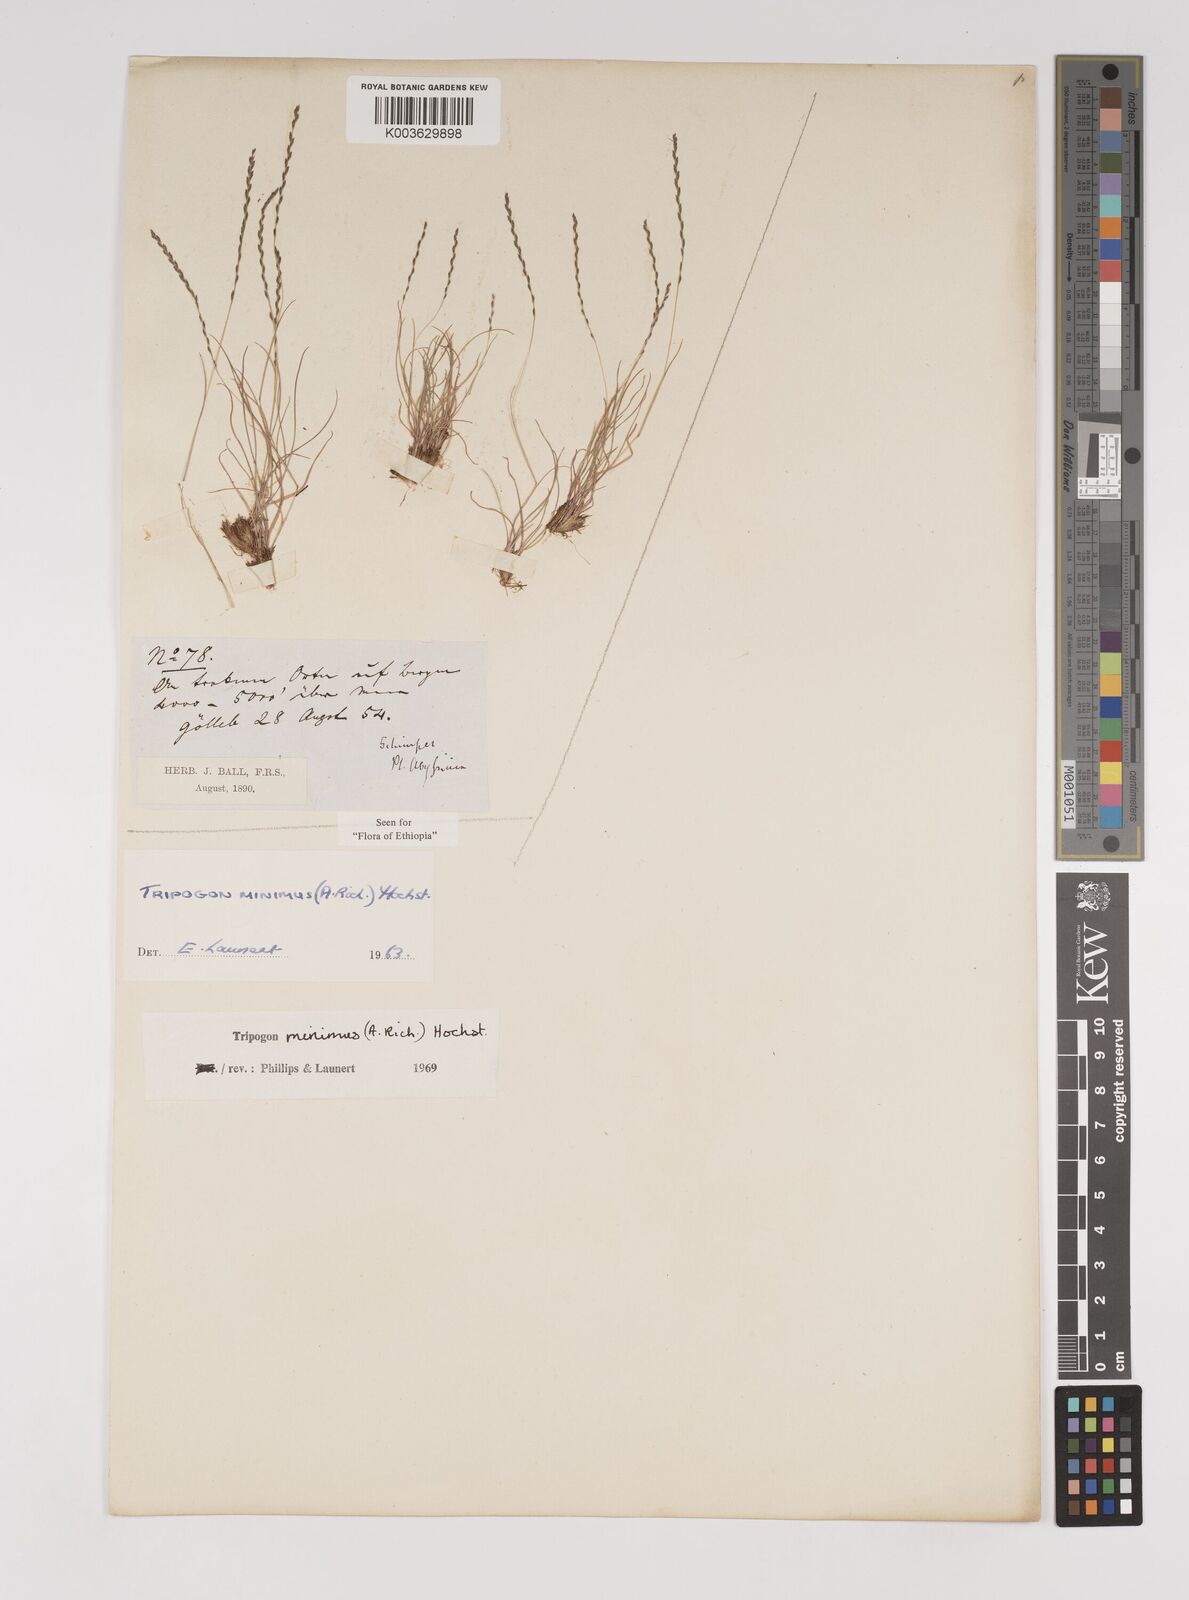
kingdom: Plantae
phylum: Tracheophyta
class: Liliopsida
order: Poales
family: Poaceae
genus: Tripogonella
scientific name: Tripogonella minima
